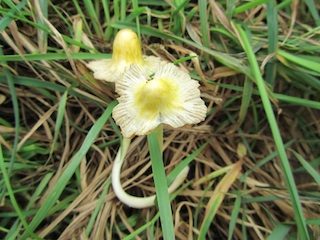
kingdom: Fungi
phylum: Basidiomycota
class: Agaricomycetes
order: Agaricales
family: Bolbitiaceae
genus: Bolbitius
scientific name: Bolbitius titubans
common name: almindelig gulhat
